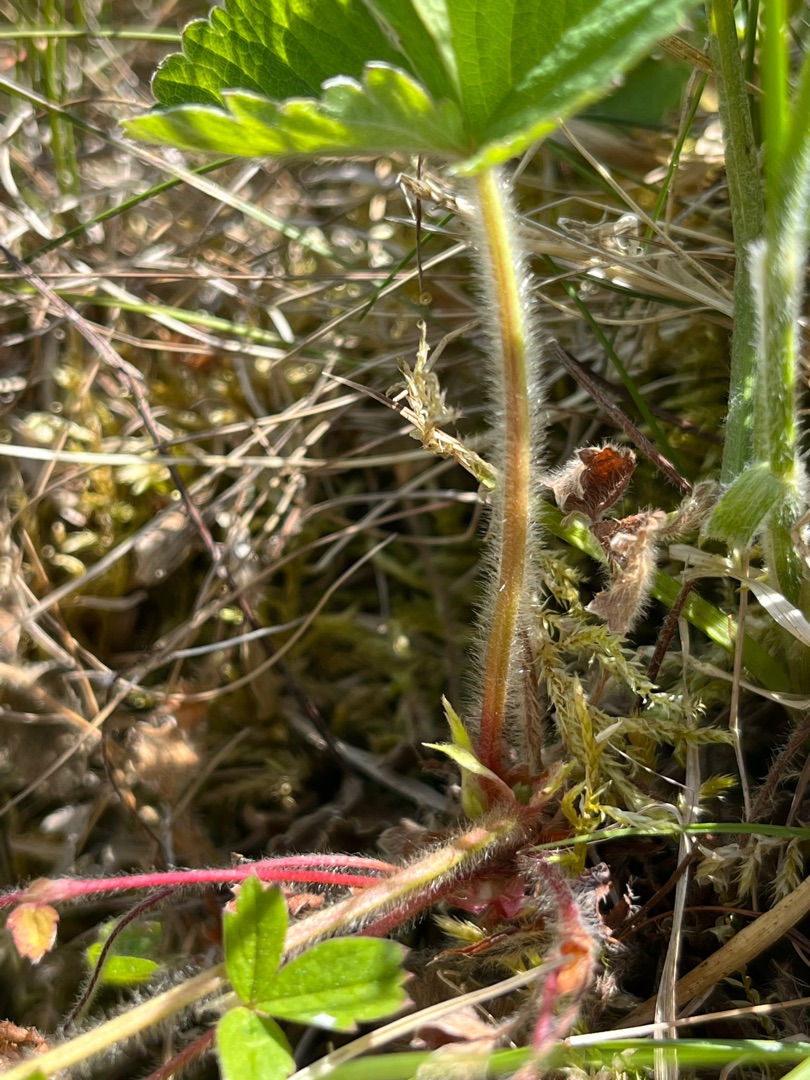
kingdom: Plantae
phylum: Tracheophyta
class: Magnoliopsida
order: Rosales
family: Rosaceae
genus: Fragaria
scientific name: Fragaria viridis
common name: Bakke-jordbær
